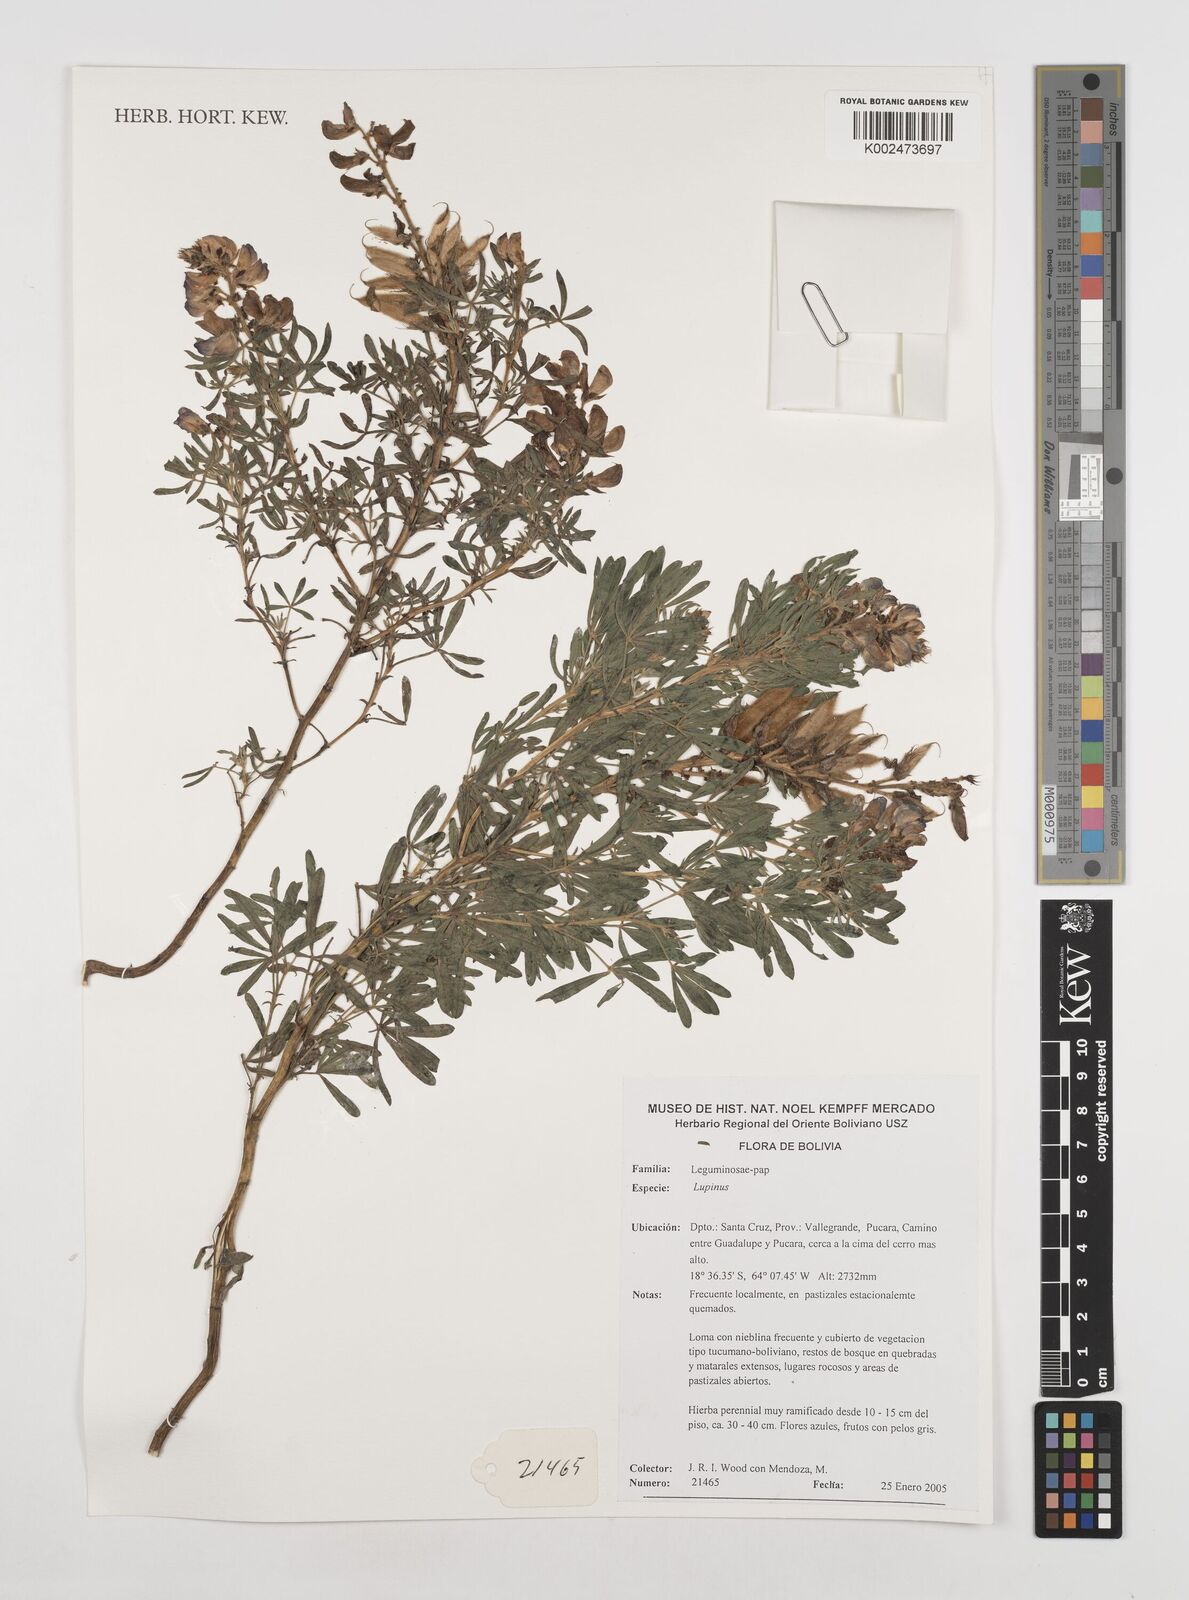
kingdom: Plantae
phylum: Tracheophyta
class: Magnoliopsida
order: Fabales
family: Fabaceae
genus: Lupinus
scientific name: Lupinus
